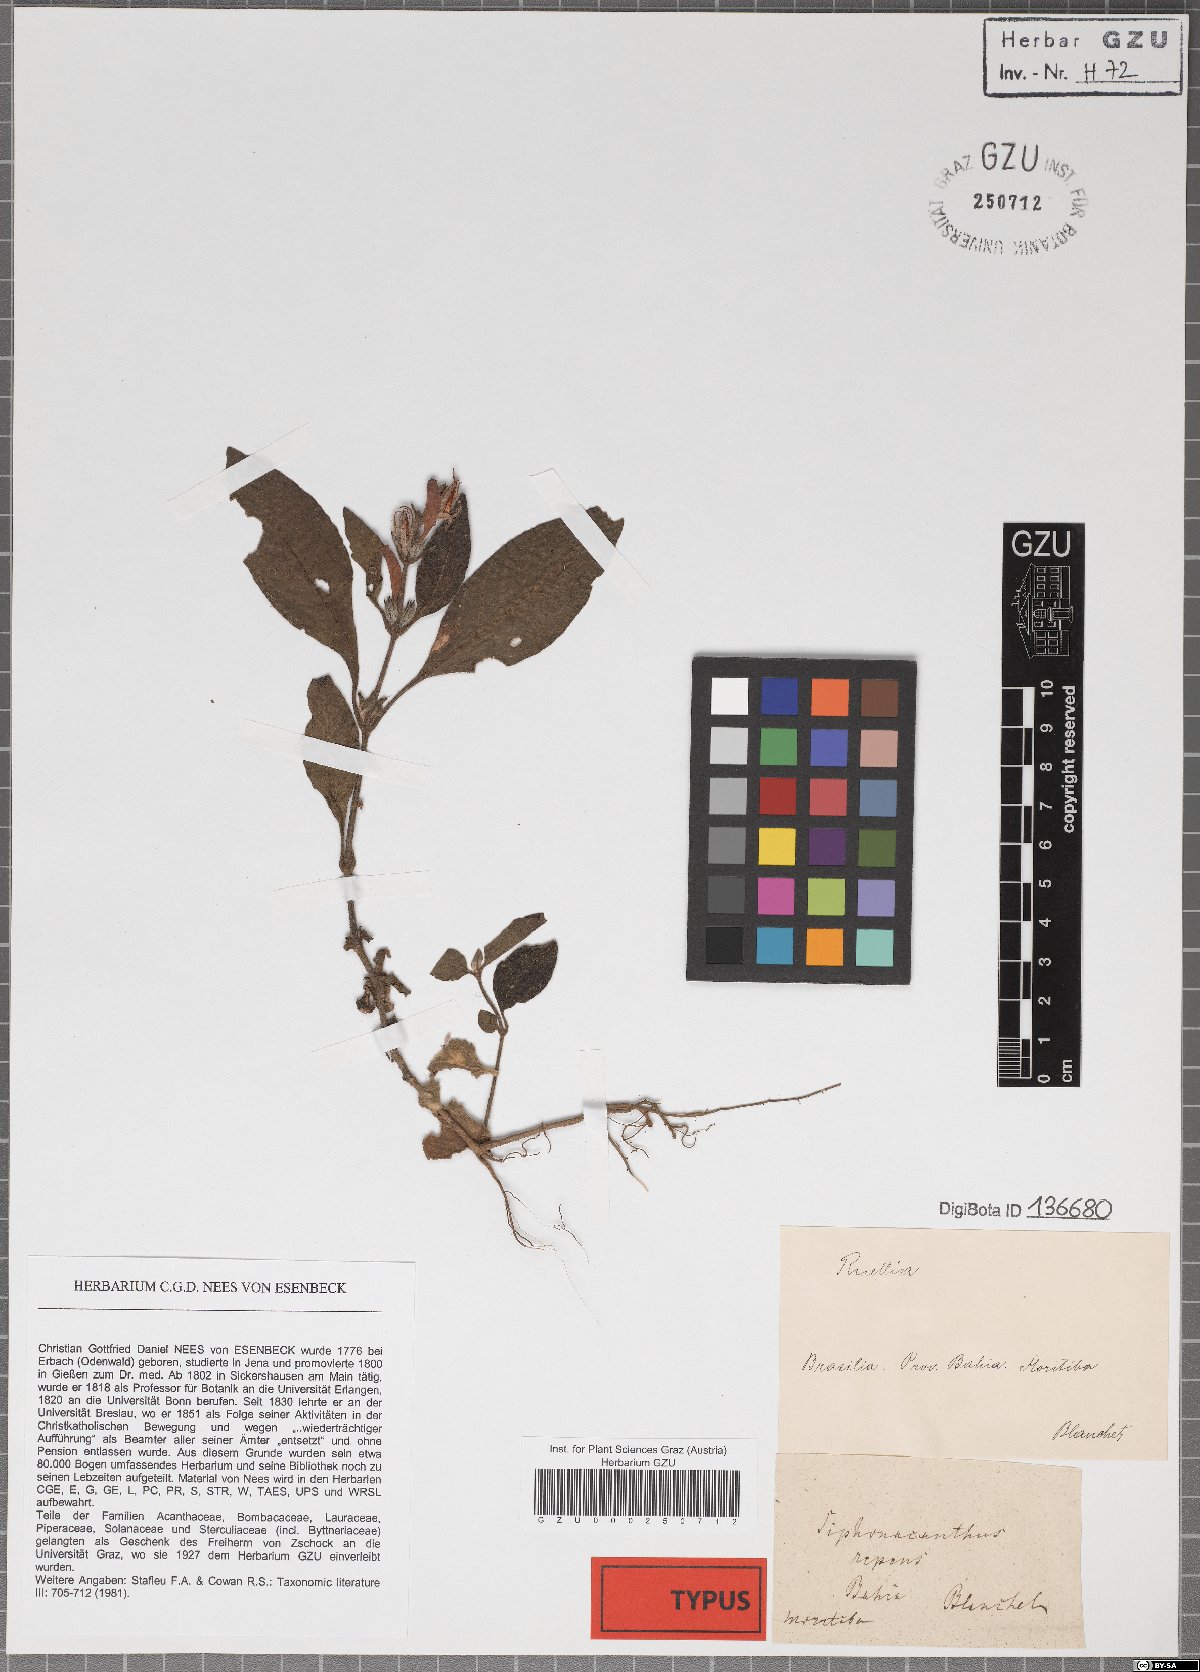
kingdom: Plantae
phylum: Tracheophyta
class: Magnoliopsida
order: Lamiales
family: Acanthaceae
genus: Ruellia
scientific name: Ruellia baikiei
